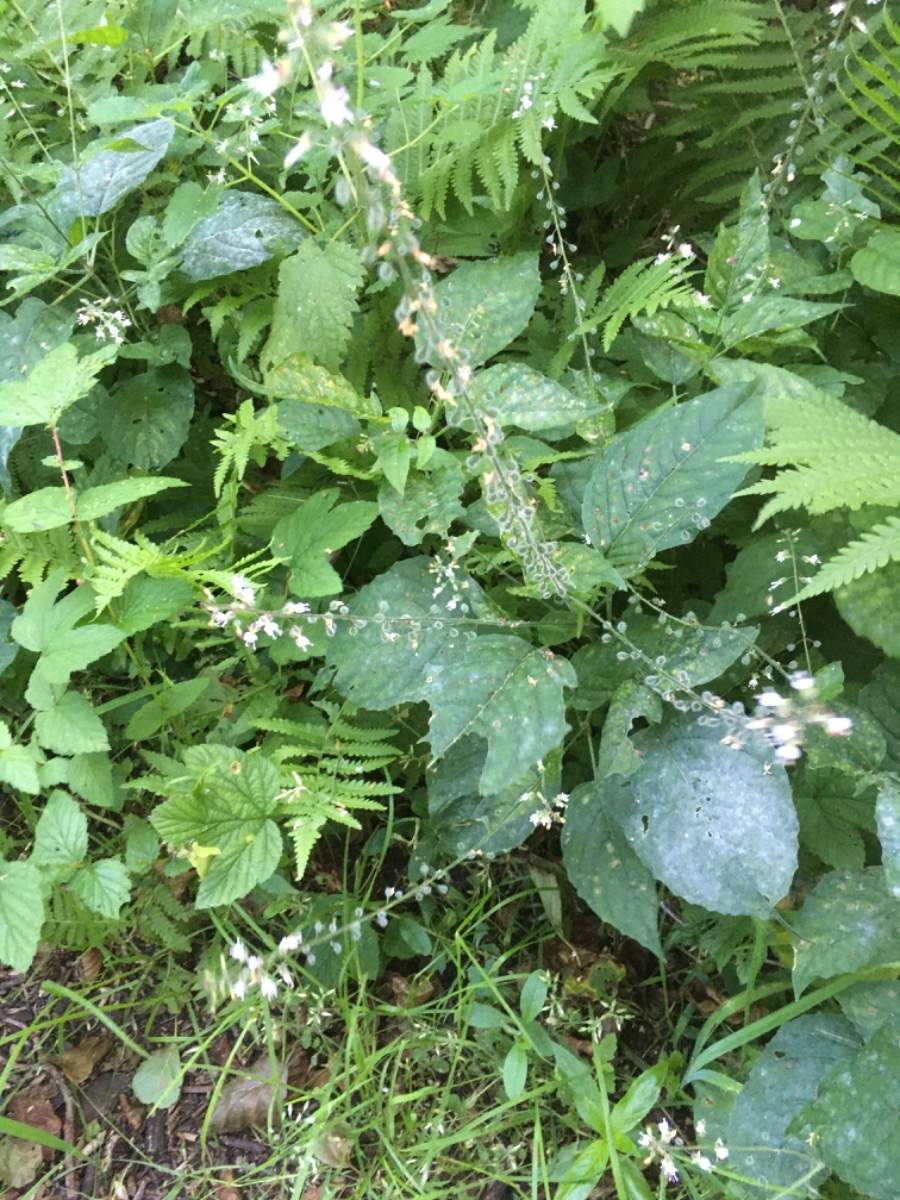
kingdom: Fungi
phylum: Ascomycota
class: Leotiomycetes
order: Helotiales
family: Erysiphaceae
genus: Erysiphe
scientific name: Erysiphe circaeae
